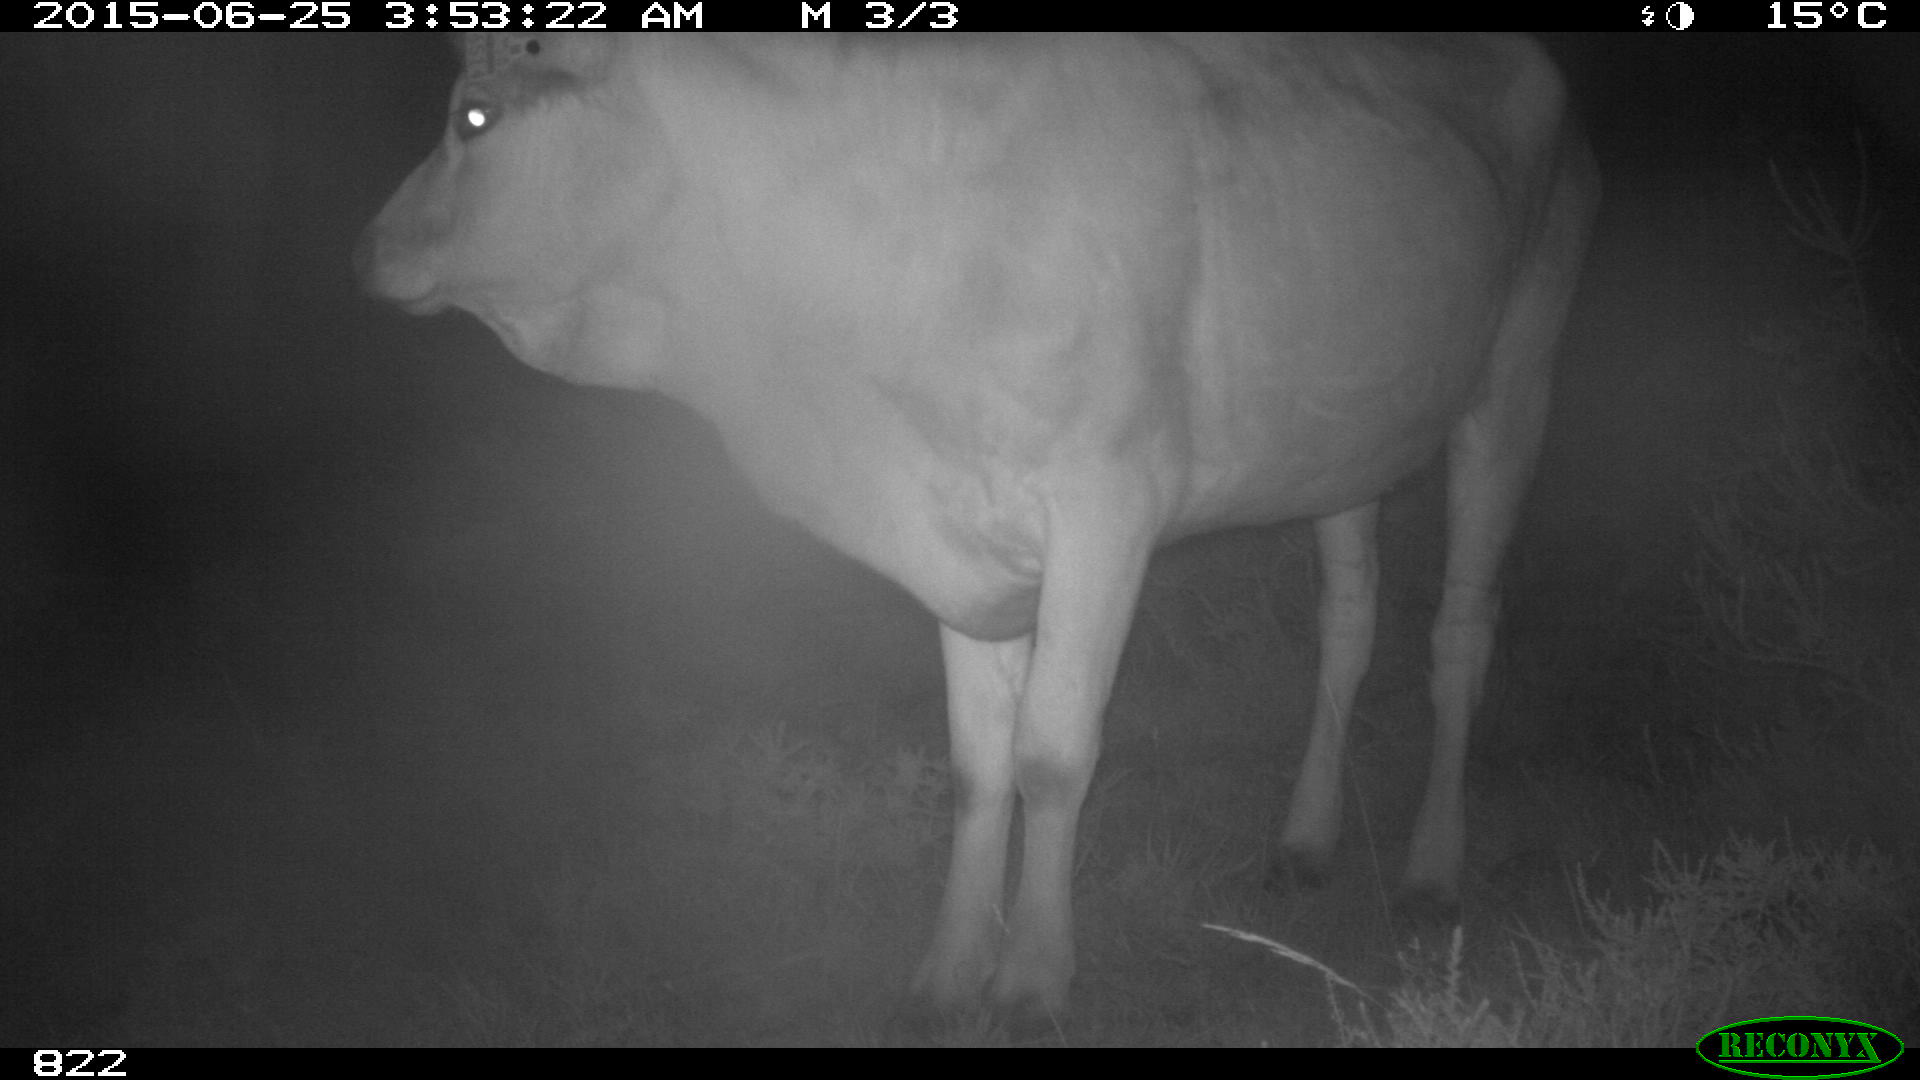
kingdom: Animalia
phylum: Chordata
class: Mammalia
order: Artiodactyla
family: Bovidae
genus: Bos
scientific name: Bos taurus
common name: Domesticated cattle
